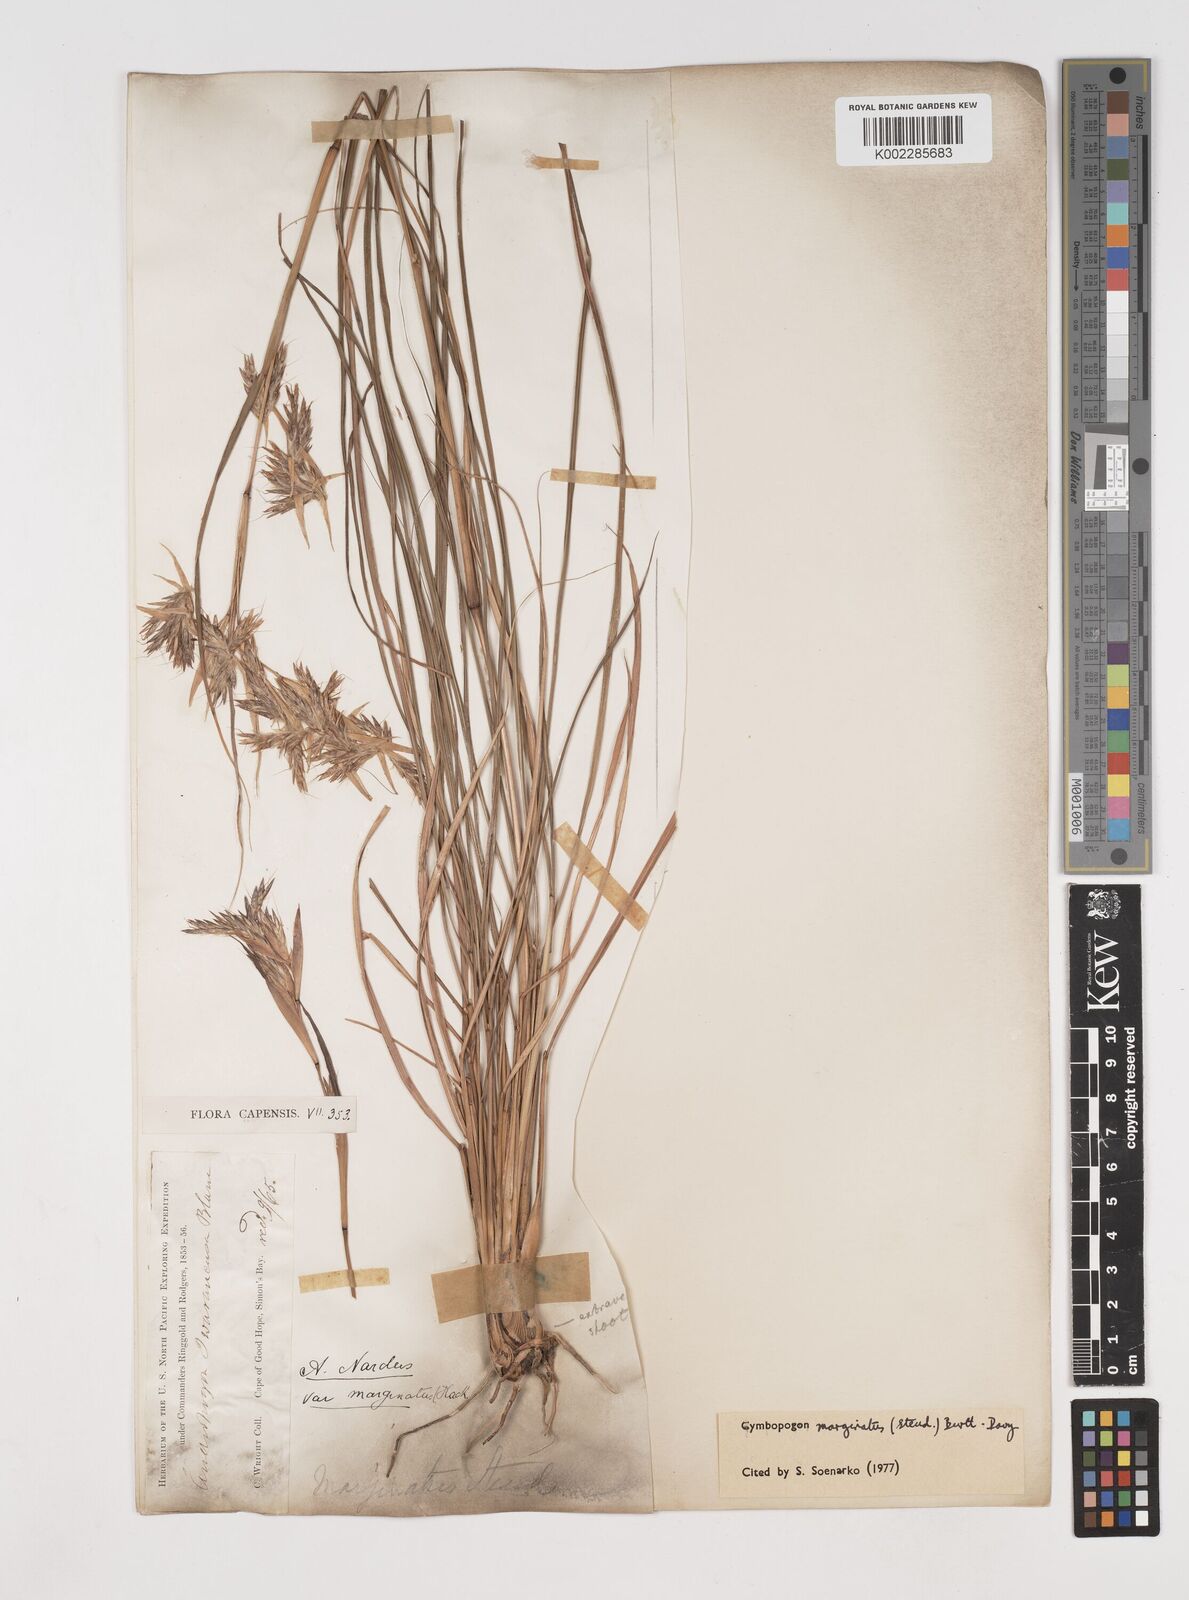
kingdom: Plantae
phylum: Tracheophyta
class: Liliopsida
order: Poales
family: Poaceae
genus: Cymbopogon
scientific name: Cymbopogon marginatus
